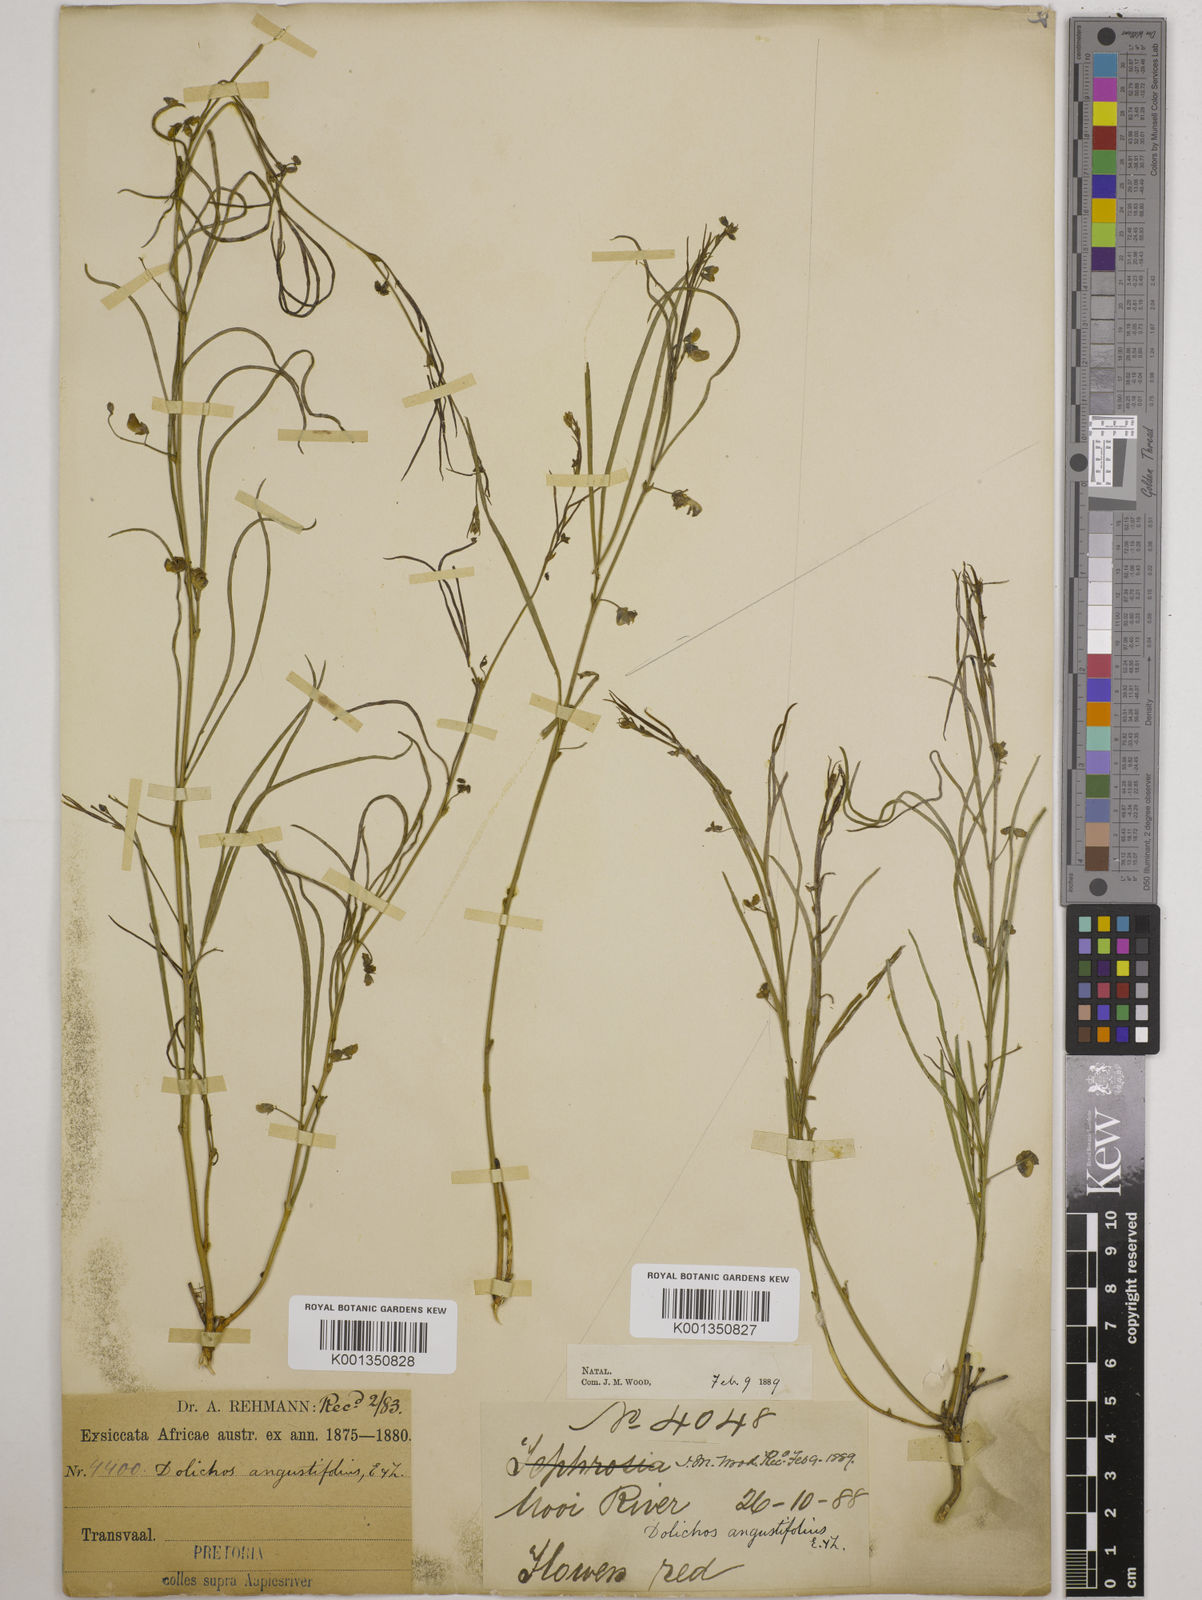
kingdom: Plantae
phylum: Tracheophyta
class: Magnoliopsida
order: Fabales
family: Fabaceae
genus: Dolichos
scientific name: Dolichos
